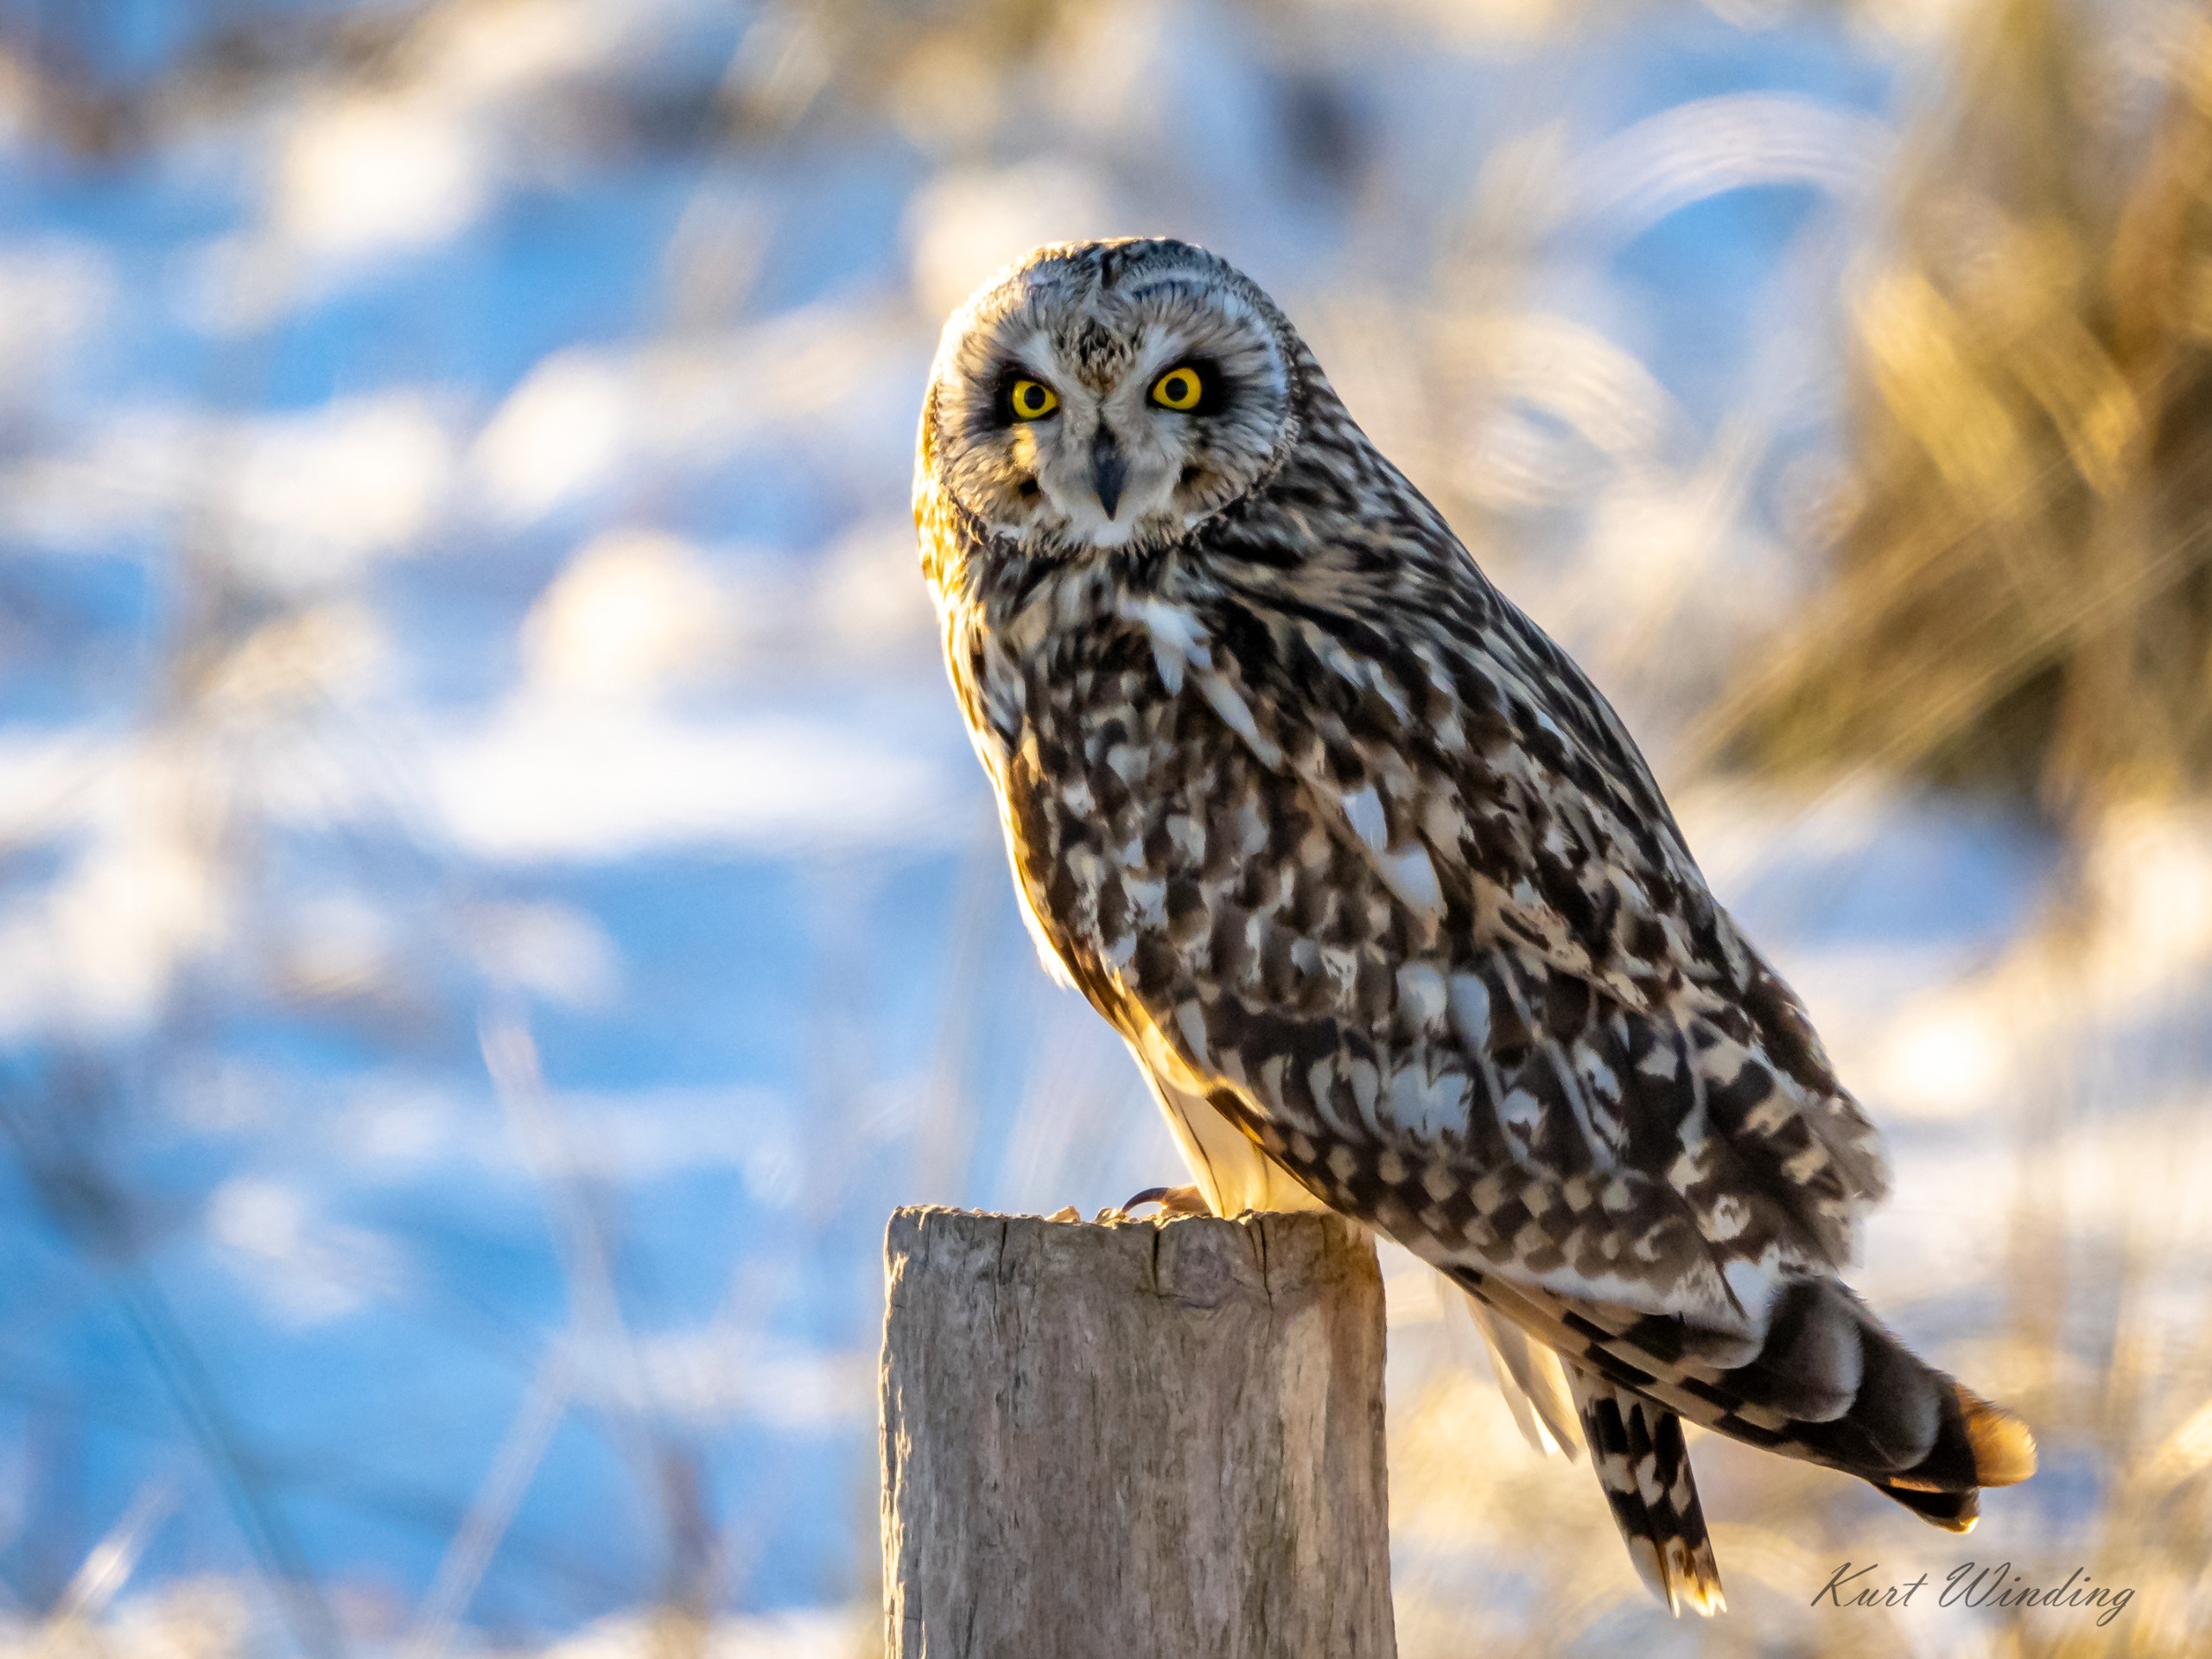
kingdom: Animalia
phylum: Chordata
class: Aves
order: Strigiformes
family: Strigidae
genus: Asio
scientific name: Asio flammeus
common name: Mosehornugle
